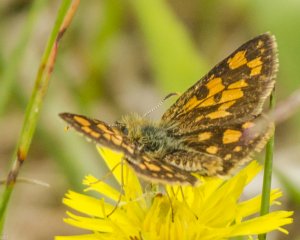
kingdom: Animalia
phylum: Arthropoda
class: Insecta
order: Lepidoptera
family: Hesperiidae
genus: Carterocephalus
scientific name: Carterocephalus palaemon
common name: Chequered Skipper
